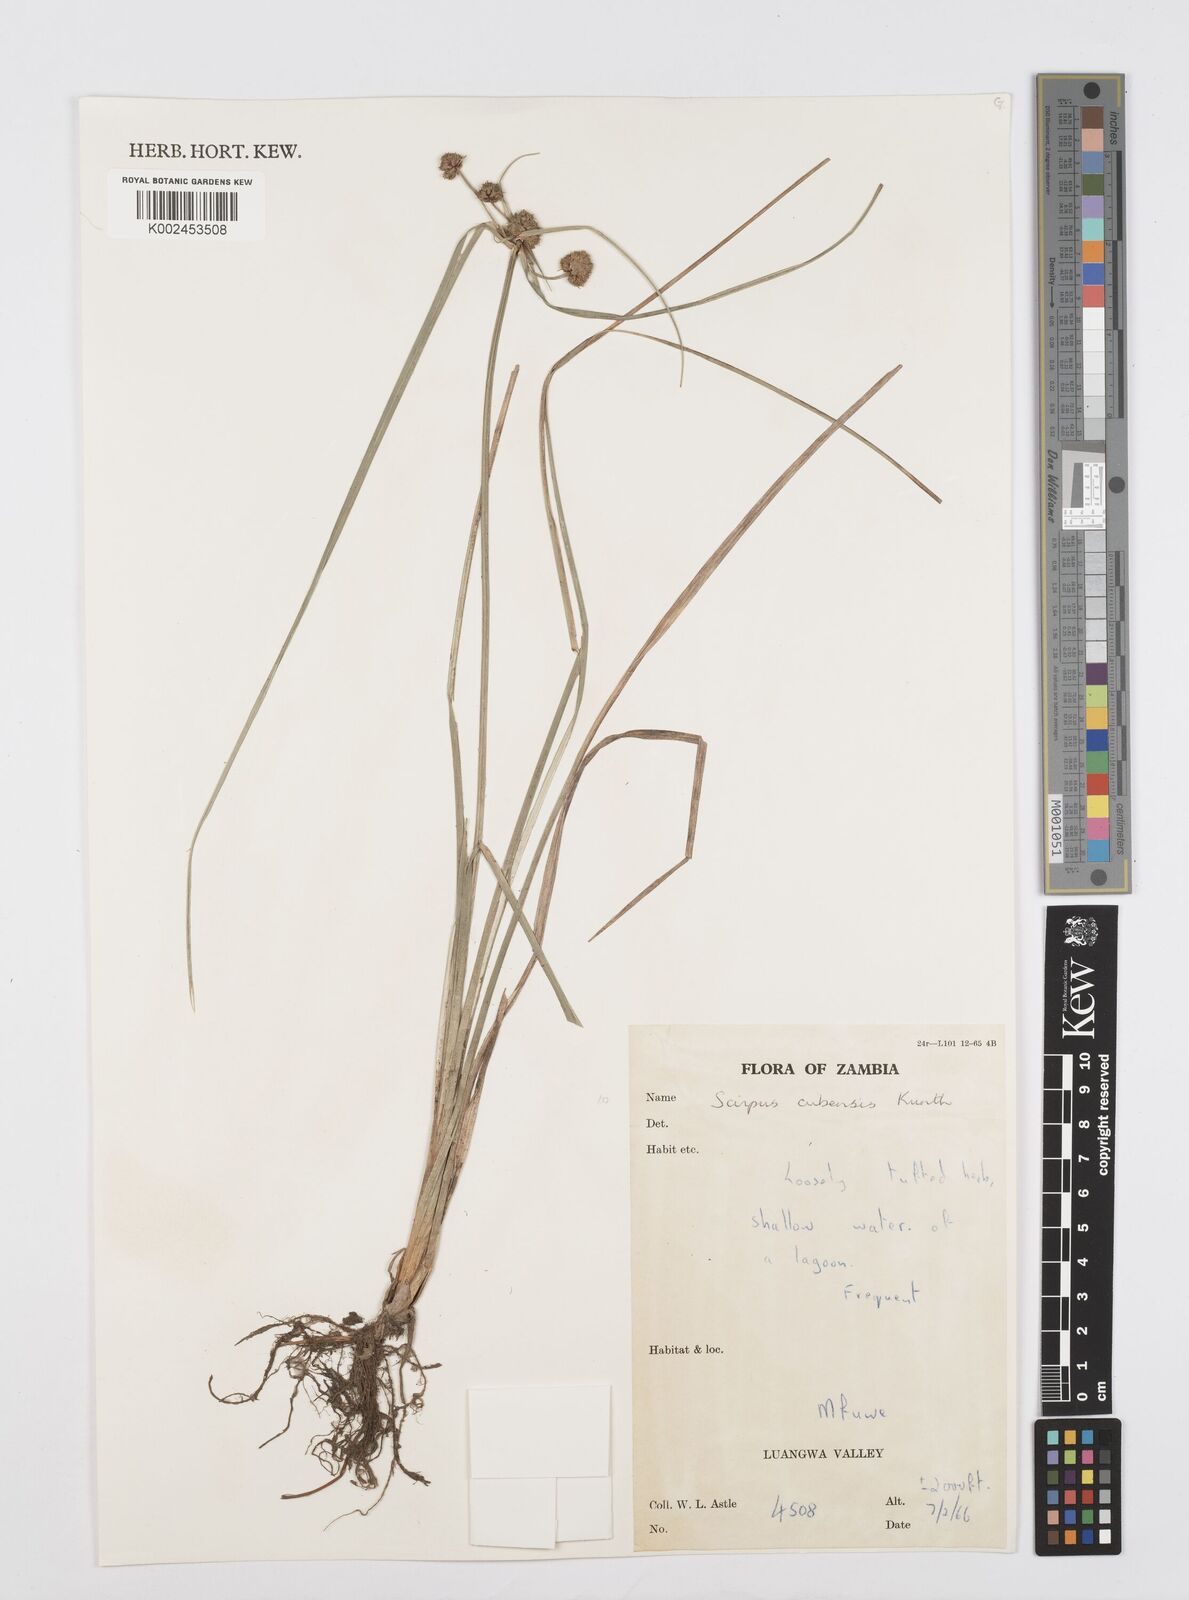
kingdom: Plantae
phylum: Tracheophyta
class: Liliopsida
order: Poales
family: Cyperaceae
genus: Cyperus
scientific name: Cyperus elegans
